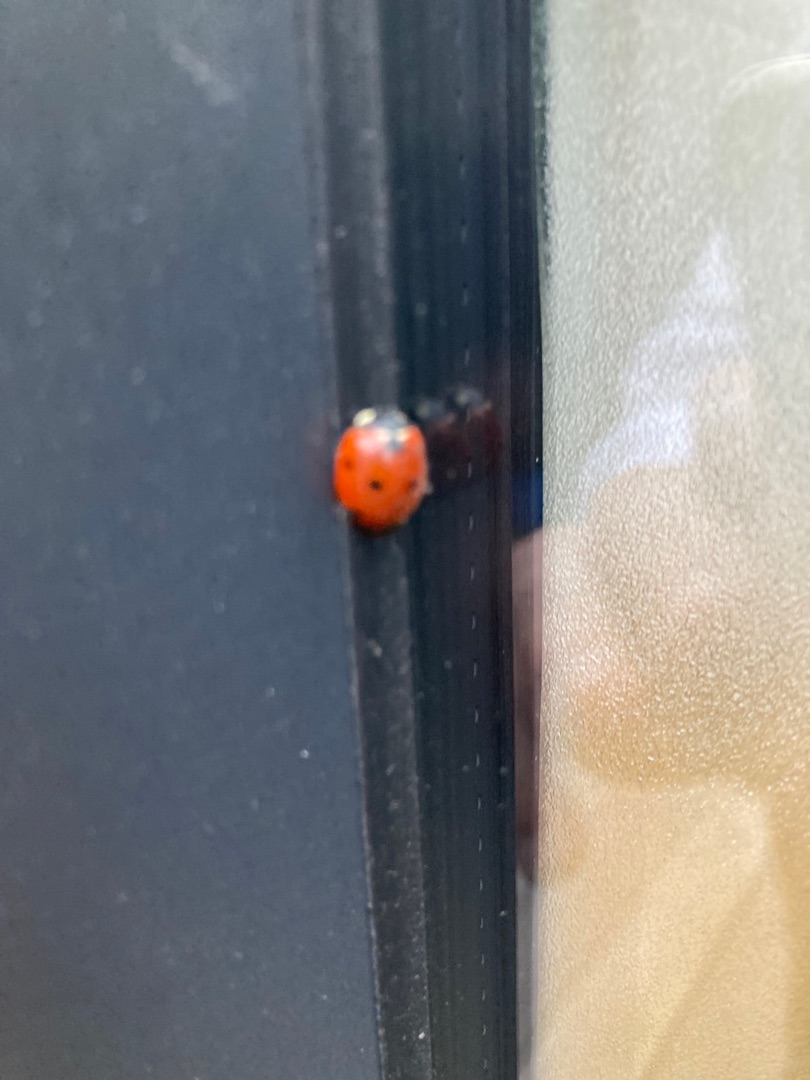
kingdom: Animalia
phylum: Arthropoda
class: Insecta
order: Coleoptera
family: Coccinellidae
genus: Coccinella
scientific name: Coccinella septempunctata
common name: Syvplettet mariehøne
